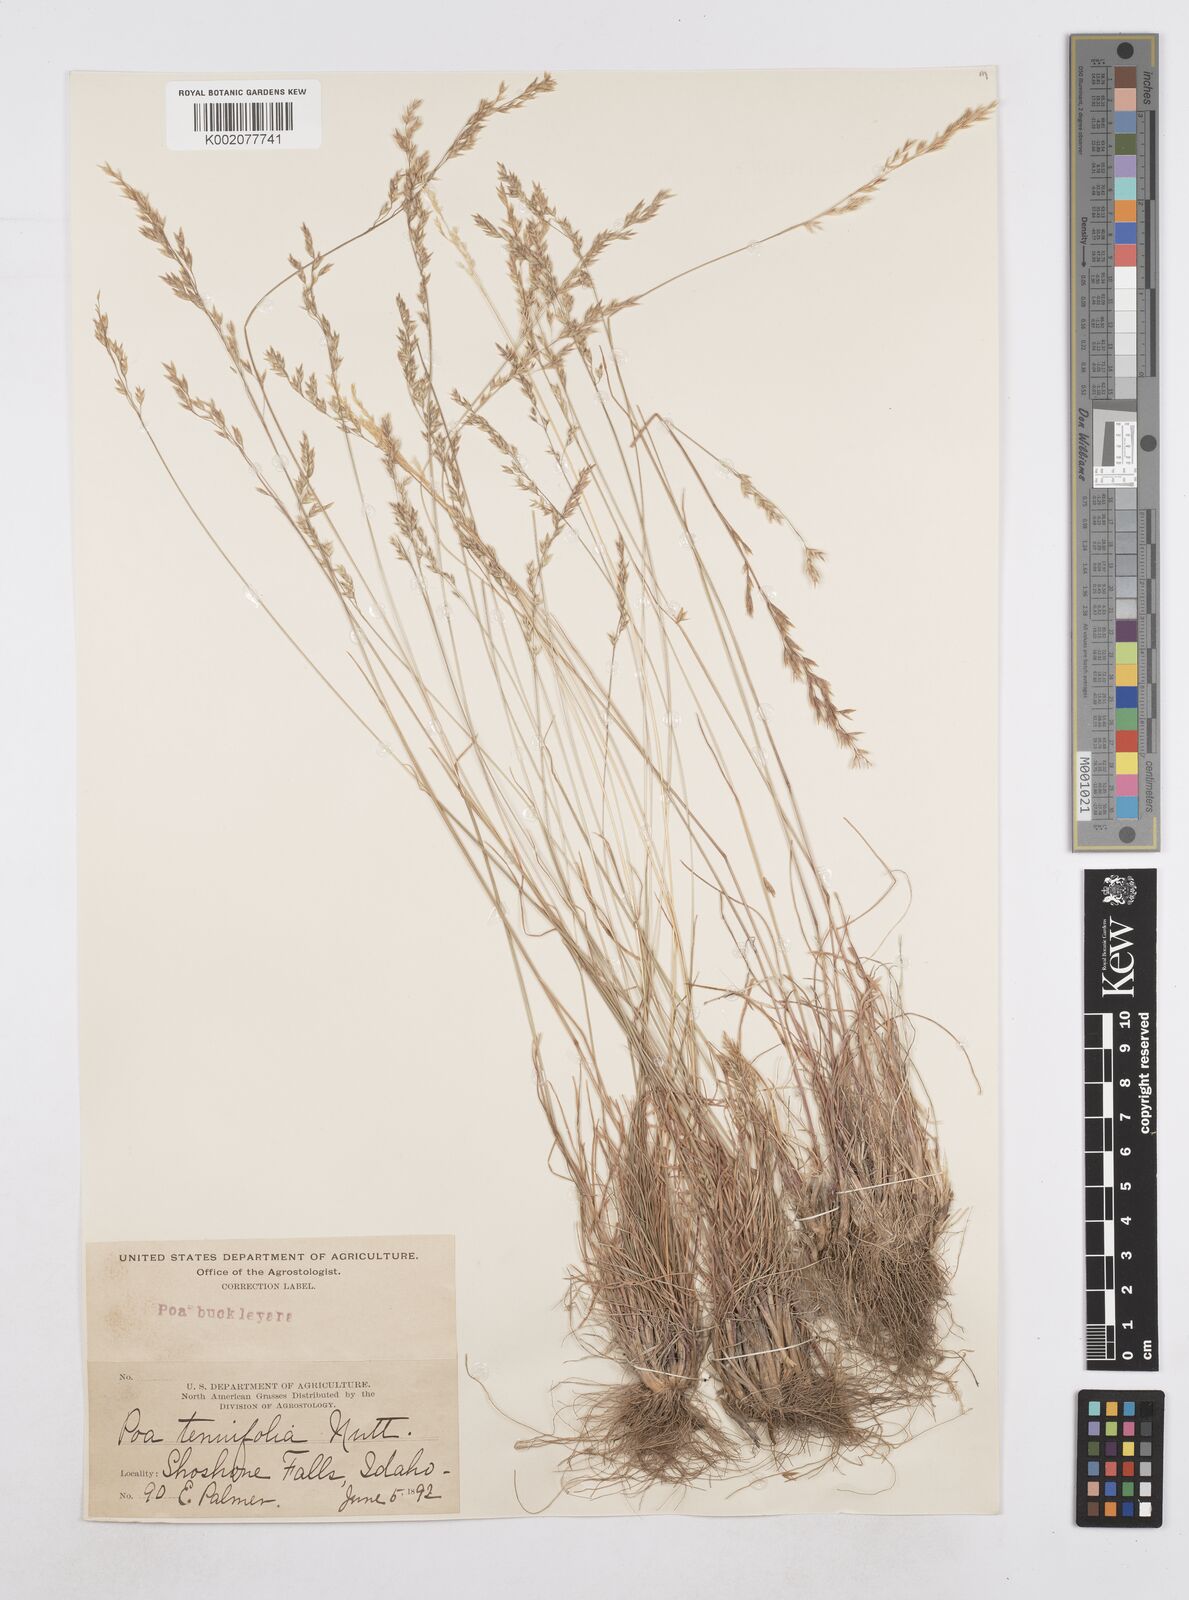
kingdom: Plantae
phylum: Tracheophyta
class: Liliopsida
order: Poales
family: Poaceae
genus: Poa
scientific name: Poa secunda
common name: Sandberg bluegrass
